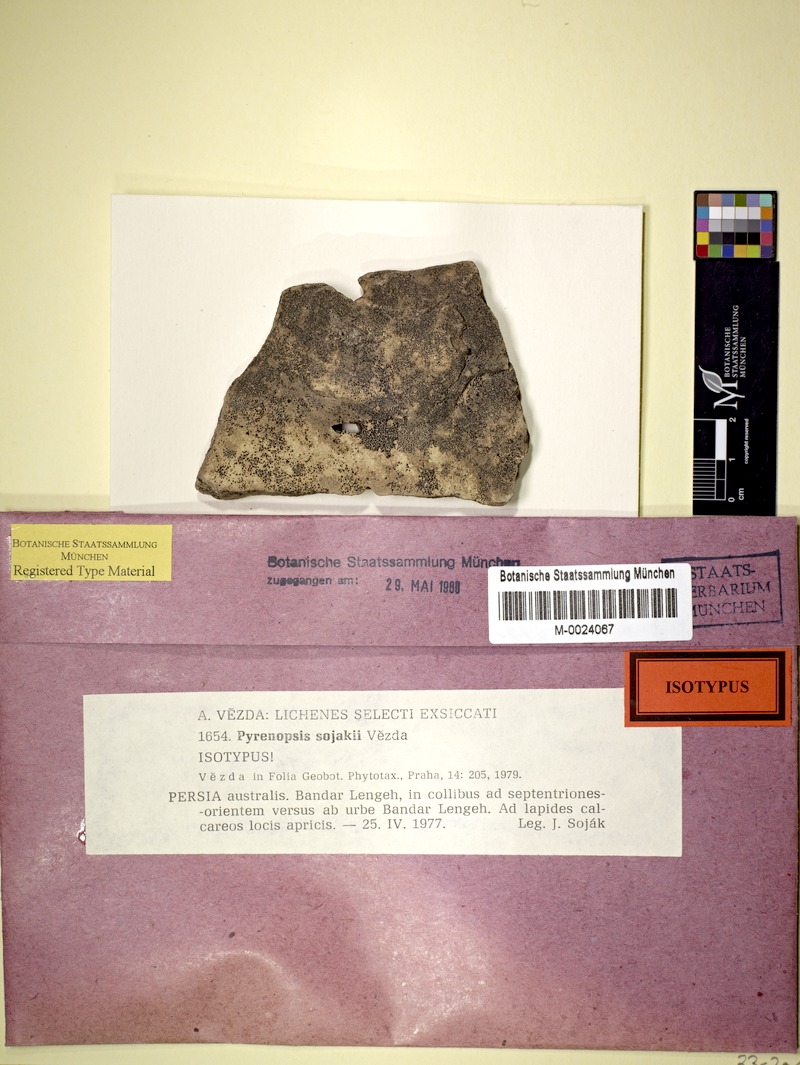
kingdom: Fungi
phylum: Ascomycota
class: Lichinomycetes
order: Lichinales
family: Lichinaceae
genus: Phloeopeccania
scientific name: Phloeopeccania pulvinulina
